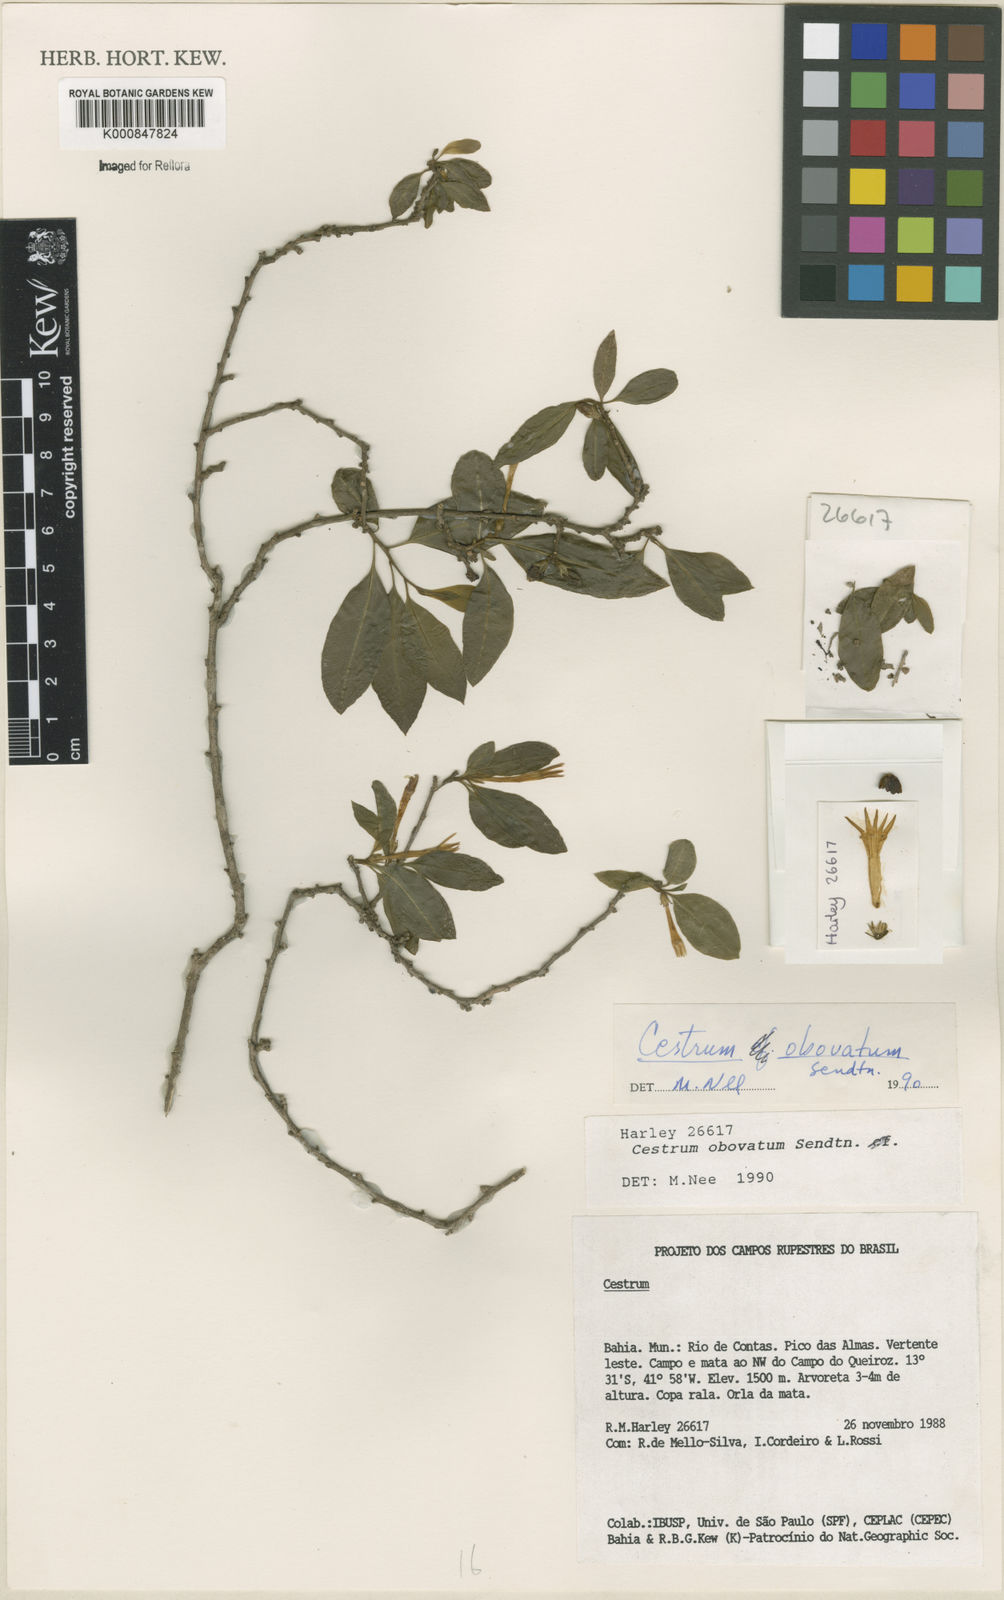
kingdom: Plantae
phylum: Tracheophyta
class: Magnoliopsida
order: Solanales
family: Solanaceae
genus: Cestrum
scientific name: Cestrum obovatum
